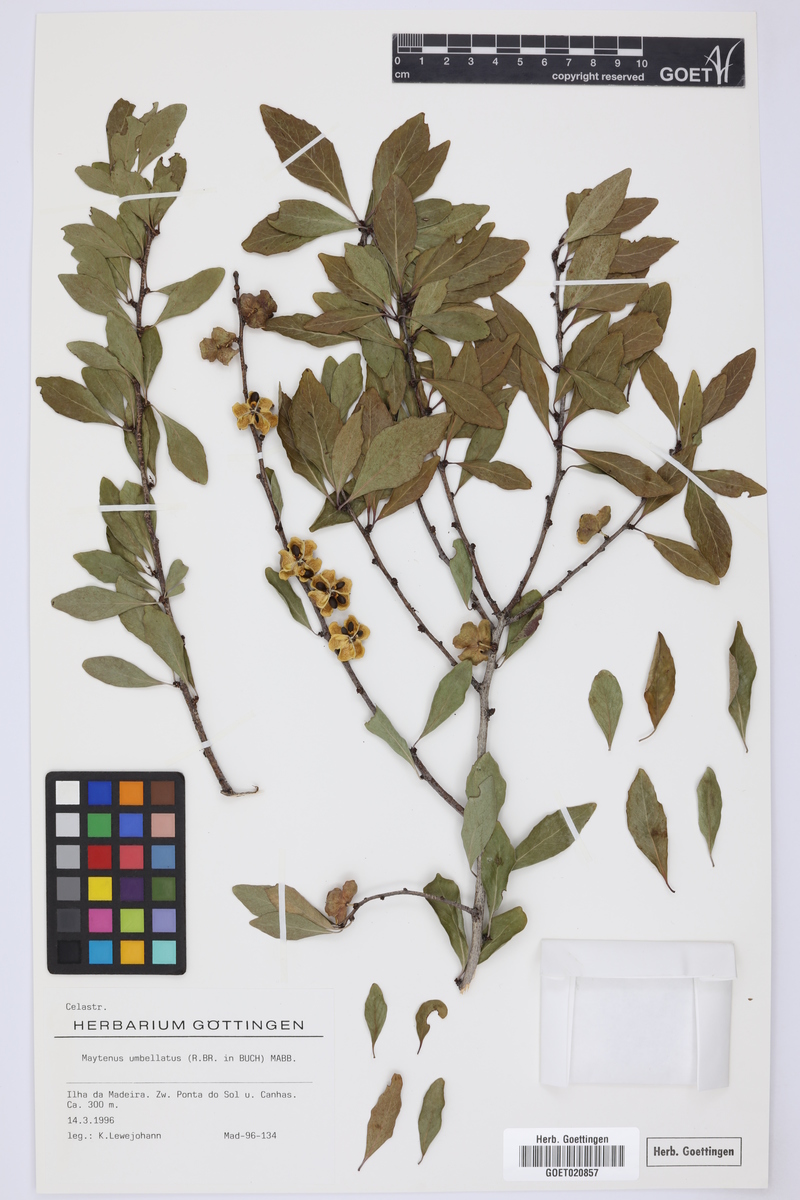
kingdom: Plantae
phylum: Tracheophyta
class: Magnoliopsida
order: Celastrales
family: Celastraceae
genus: Gymnosporia
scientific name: Gymnosporia dryandri
